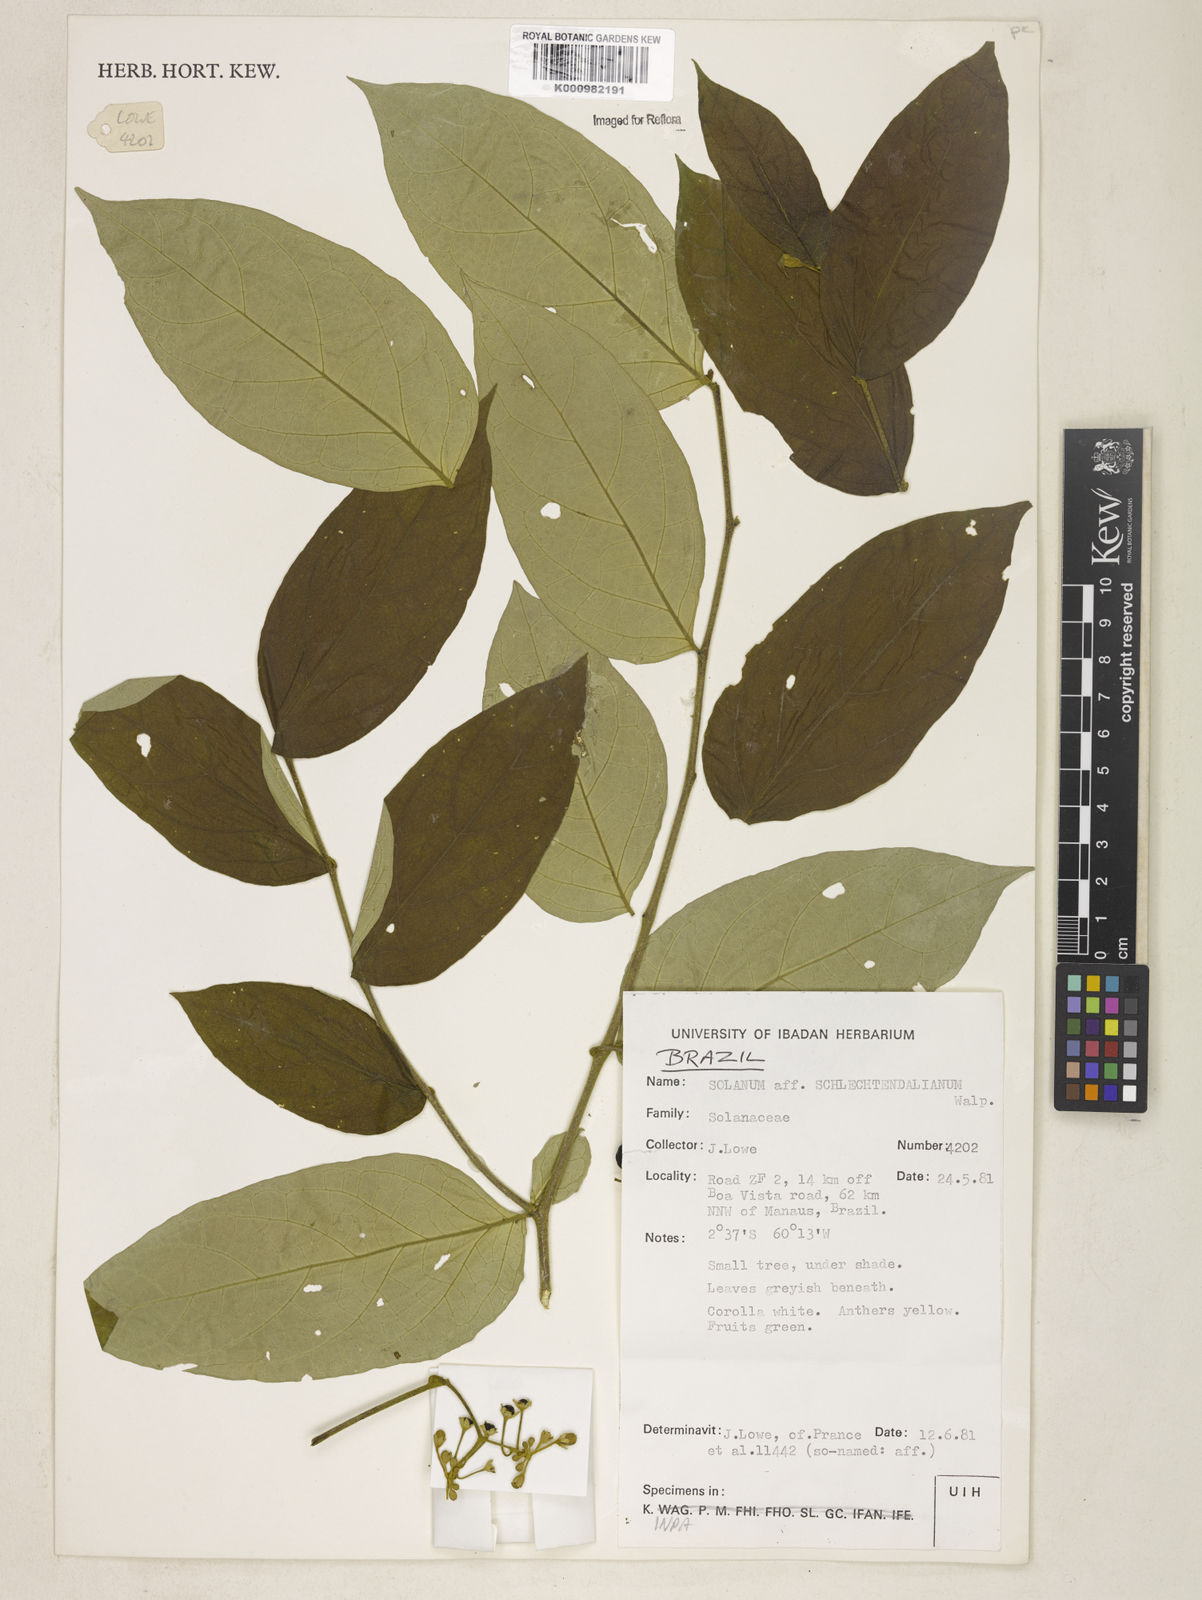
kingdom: Plantae
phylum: Tracheophyta
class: Magnoliopsida
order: Solanales
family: Solanaceae
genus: Solanum
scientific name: Solanum schlechtendalianum
